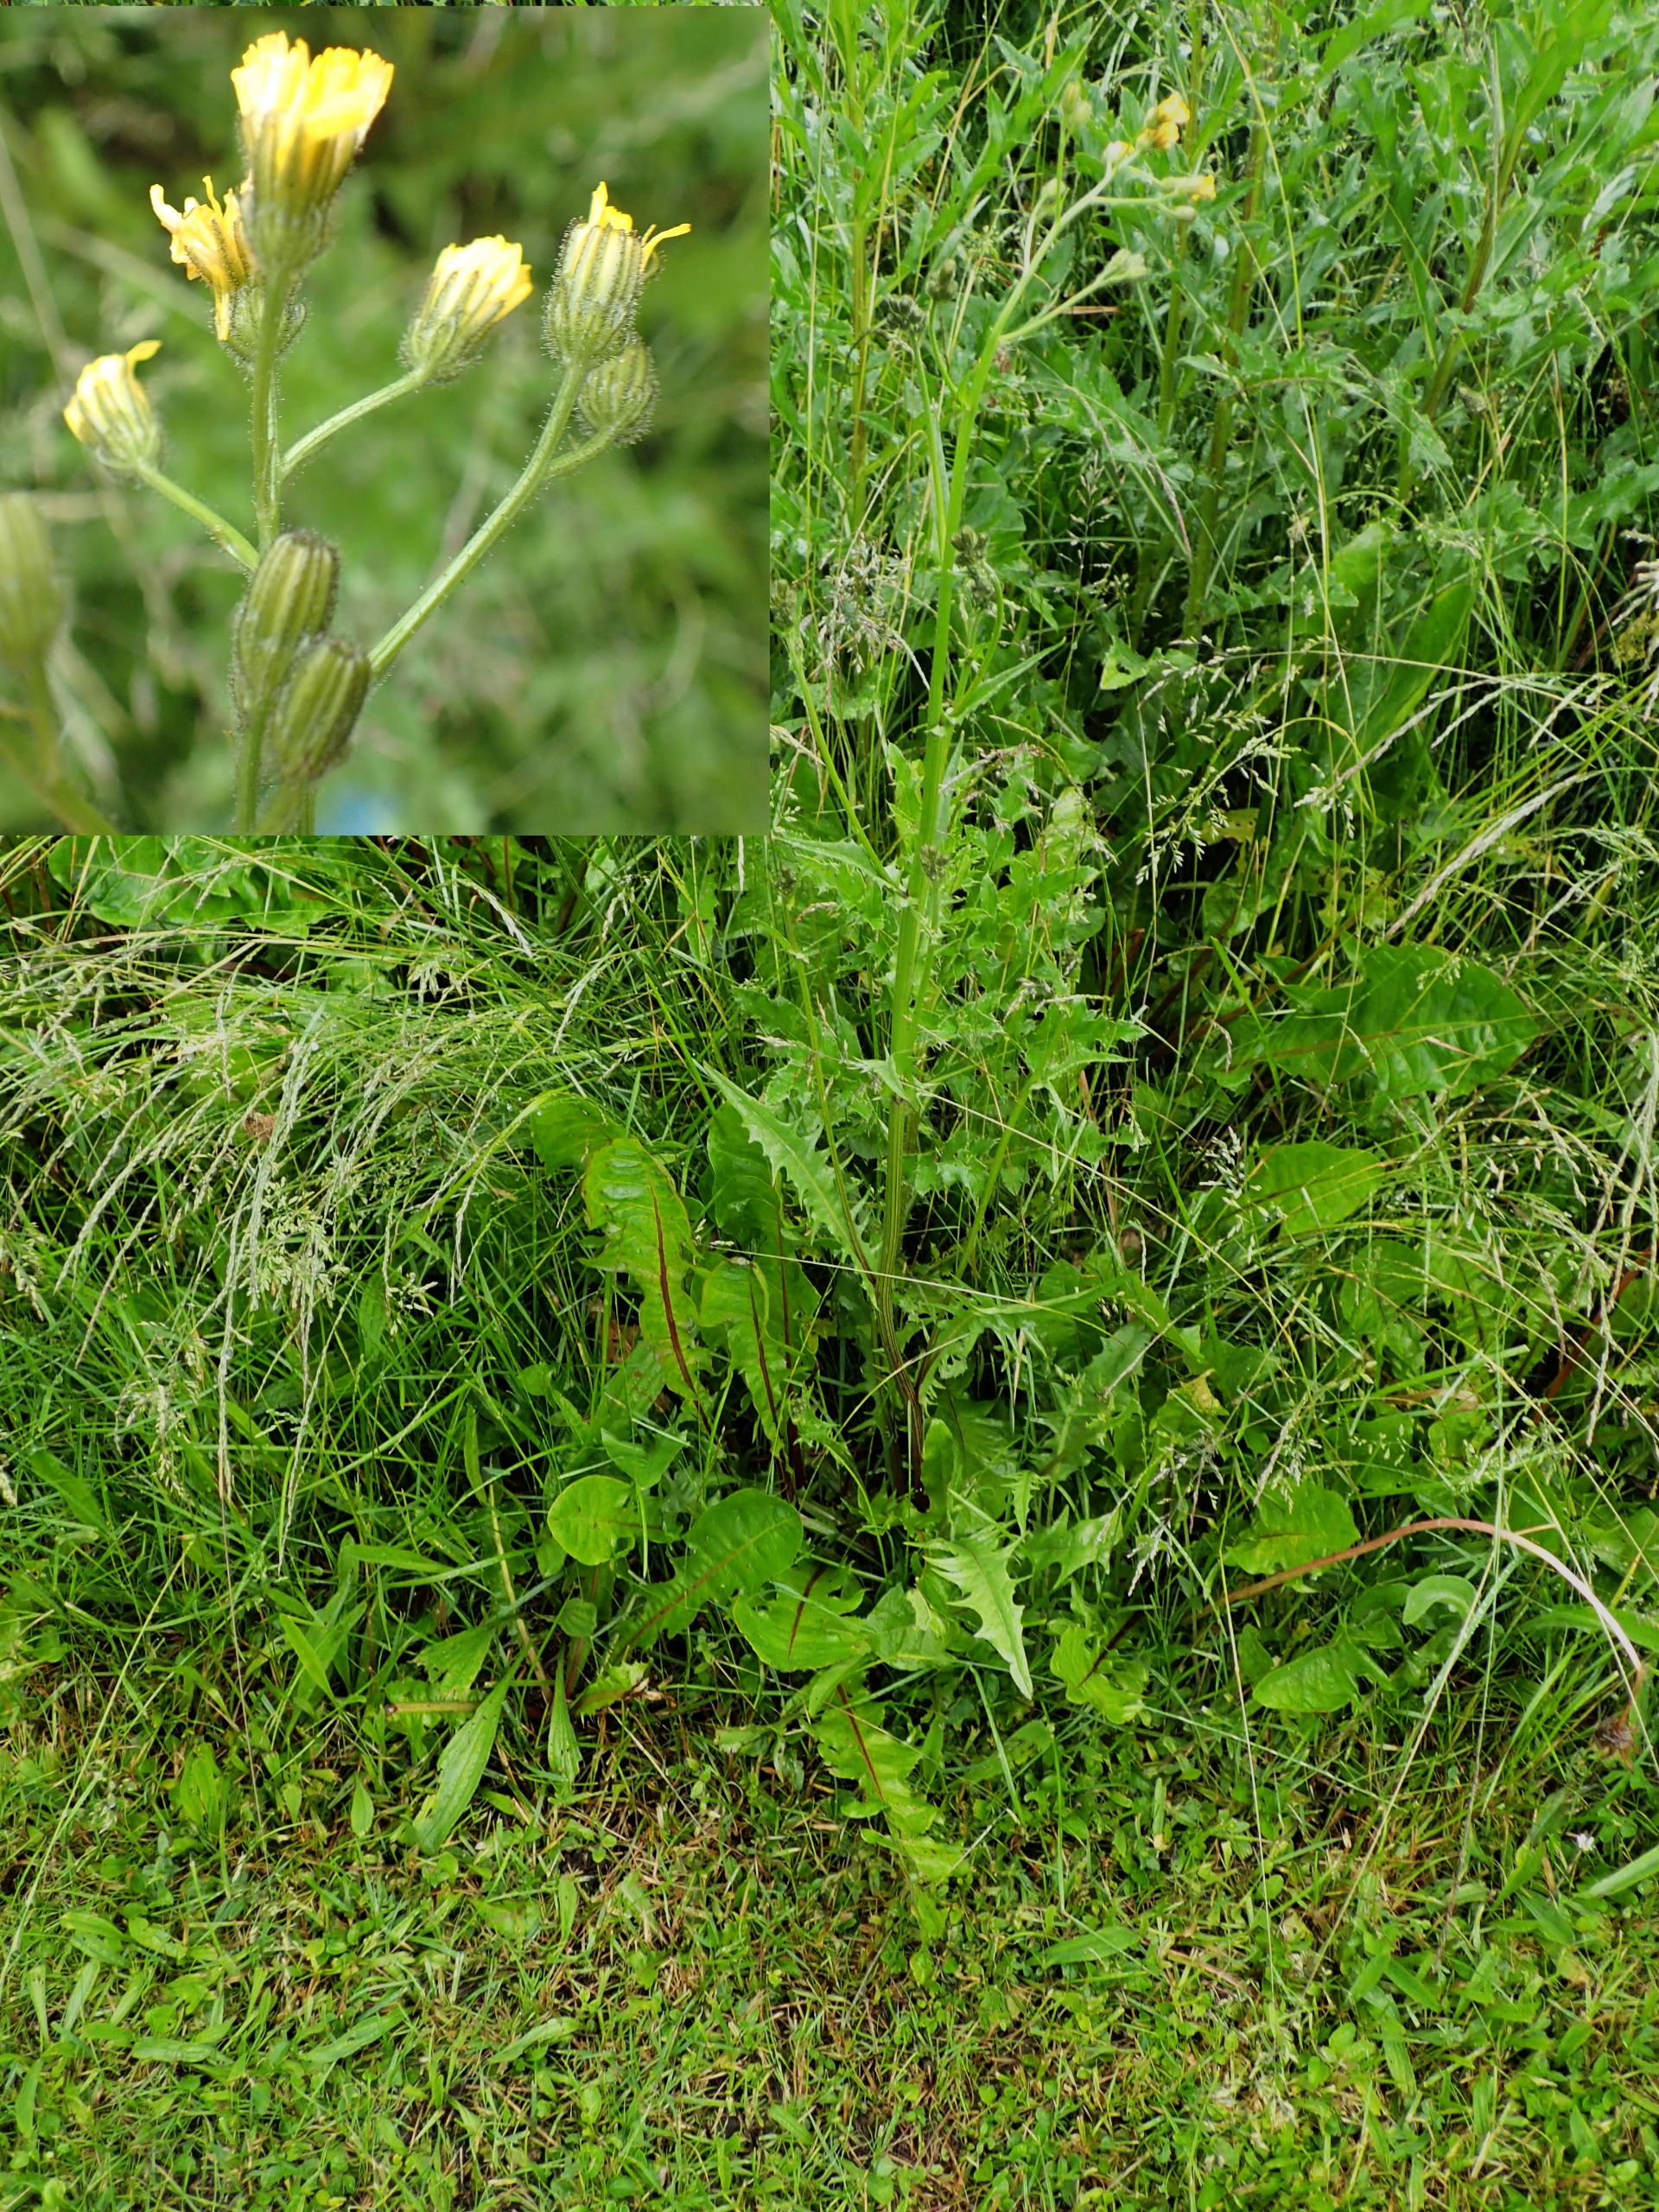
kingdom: Plantae
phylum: Tracheophyta
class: Magnoliopsida
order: Asterales
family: Asteraceae
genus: Crepis
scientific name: Crepis biennis
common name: Toårig høgeskæg
